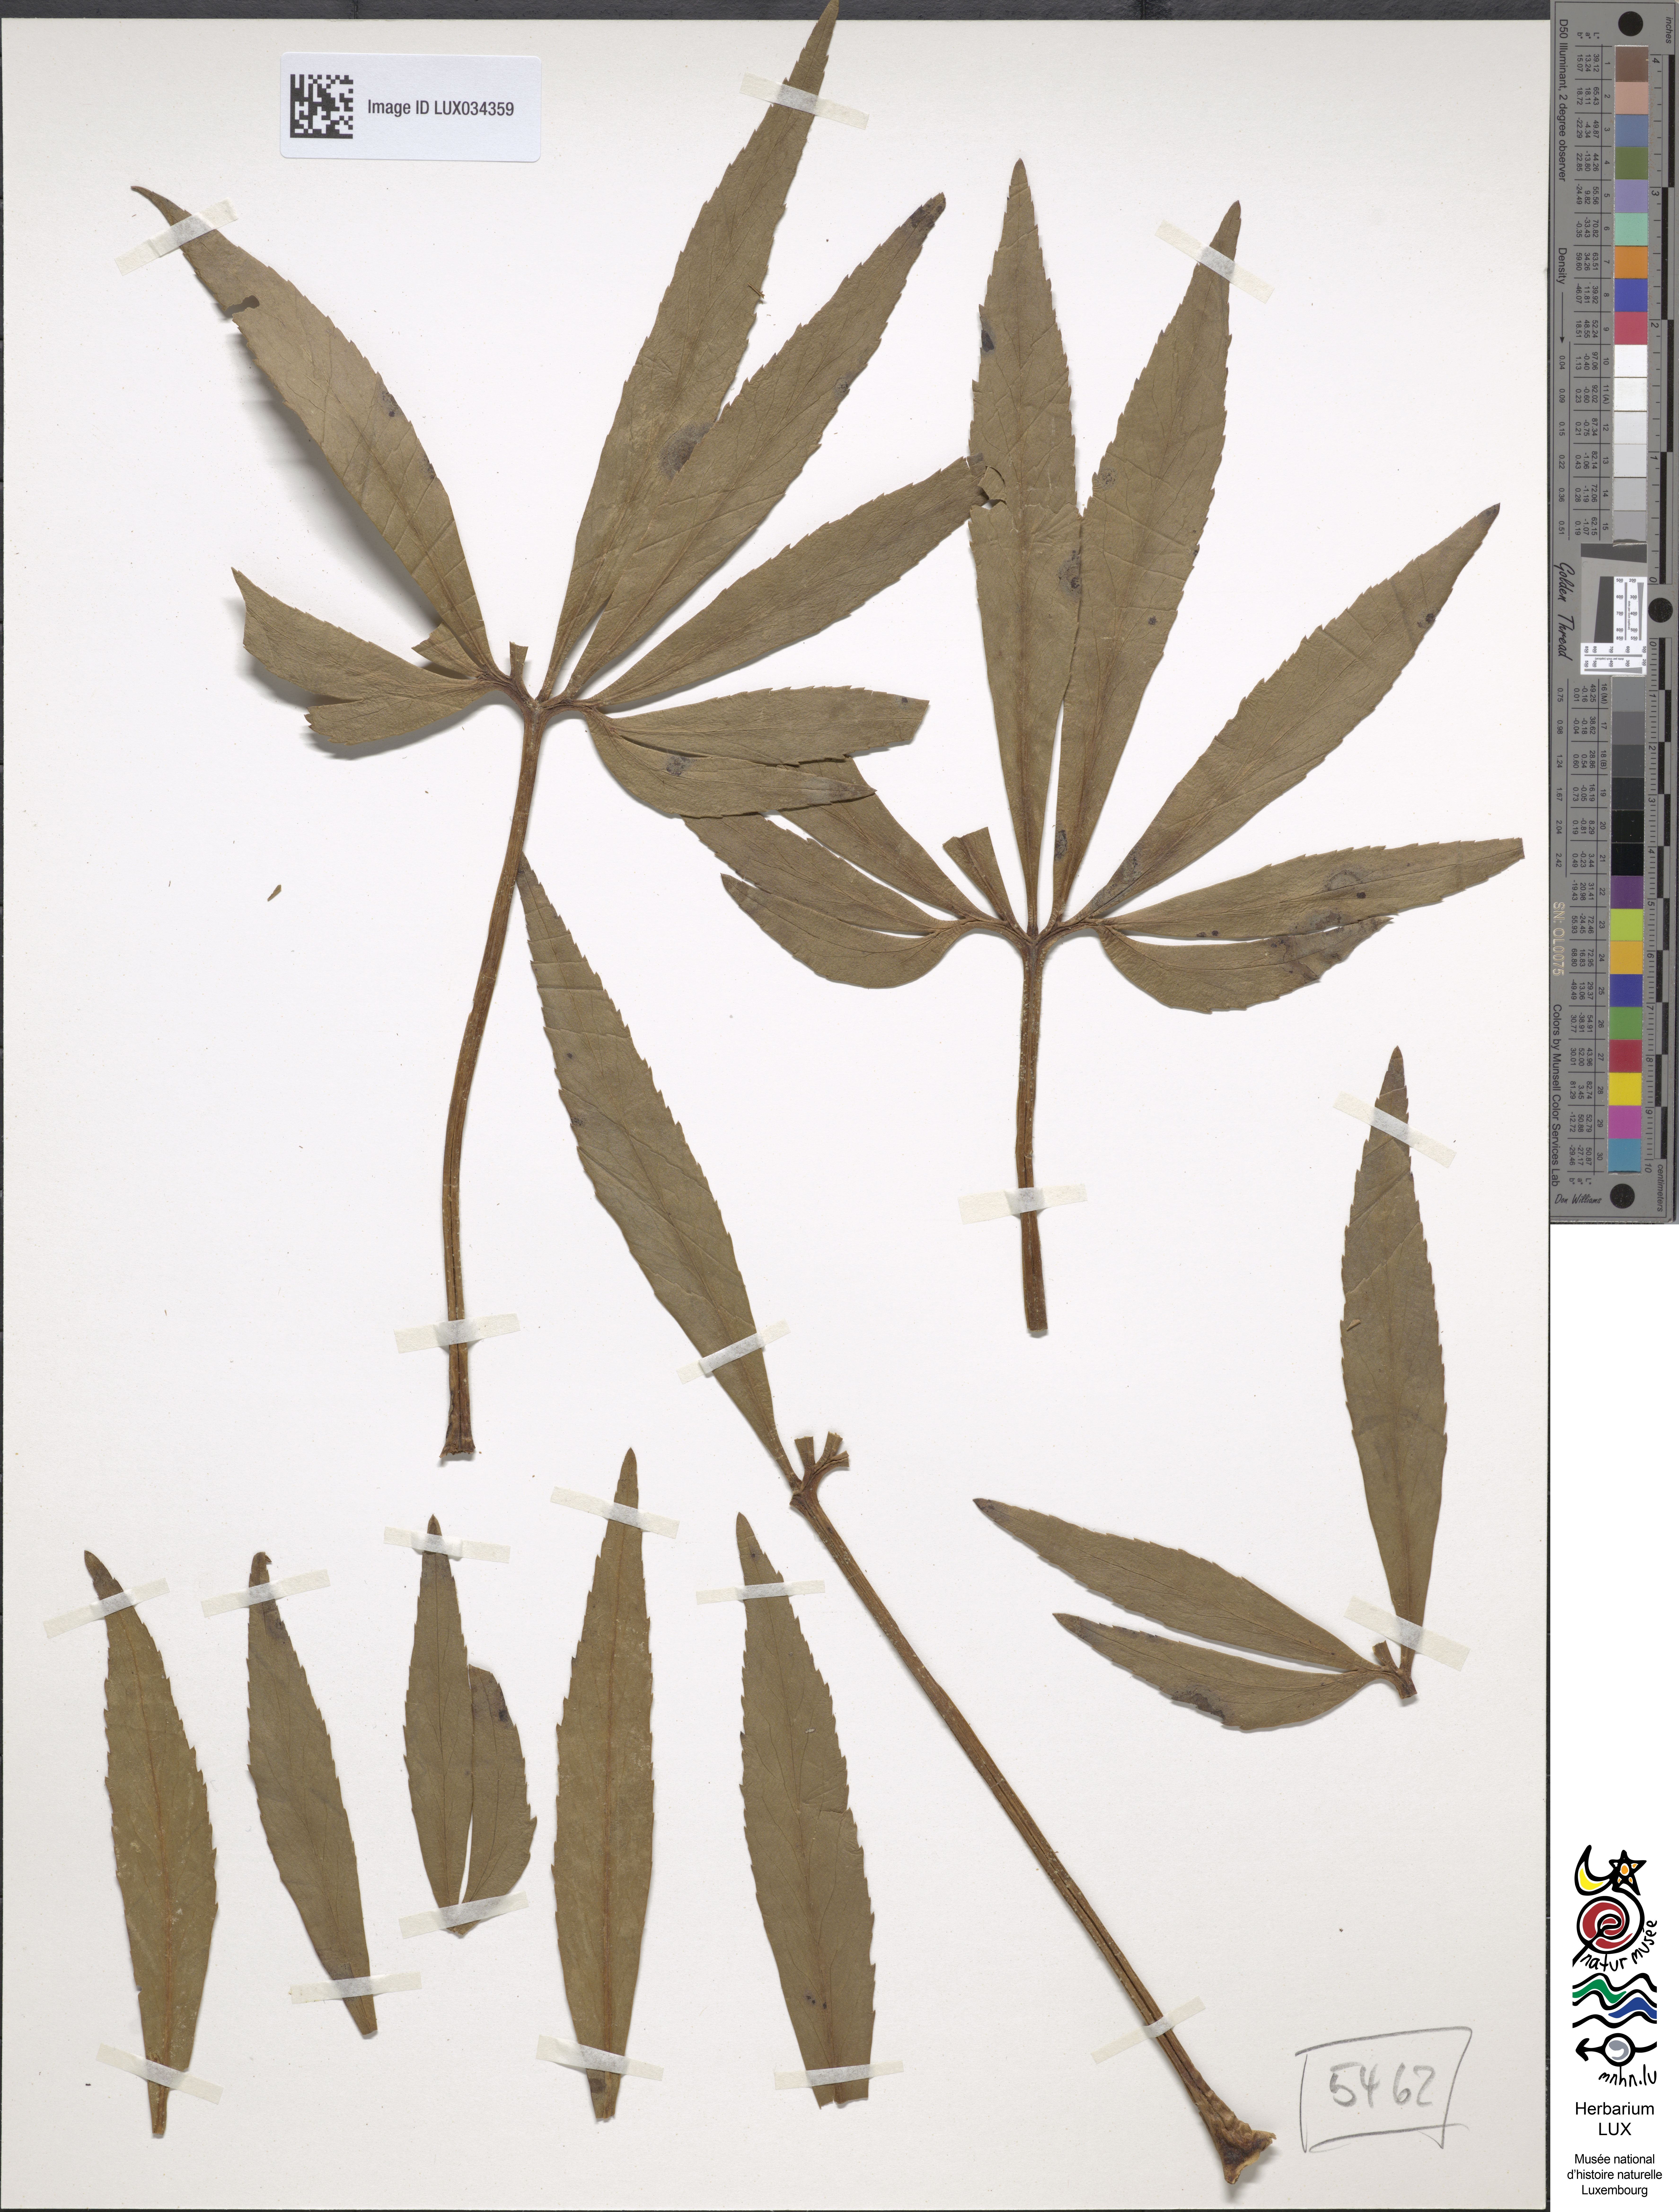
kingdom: Plantae
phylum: Tracheophyta
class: Magnoliopsida
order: Ranunculales
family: Ranunculaceae
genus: Helleborus
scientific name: Helleborus foetidus
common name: Stinking hellebore
